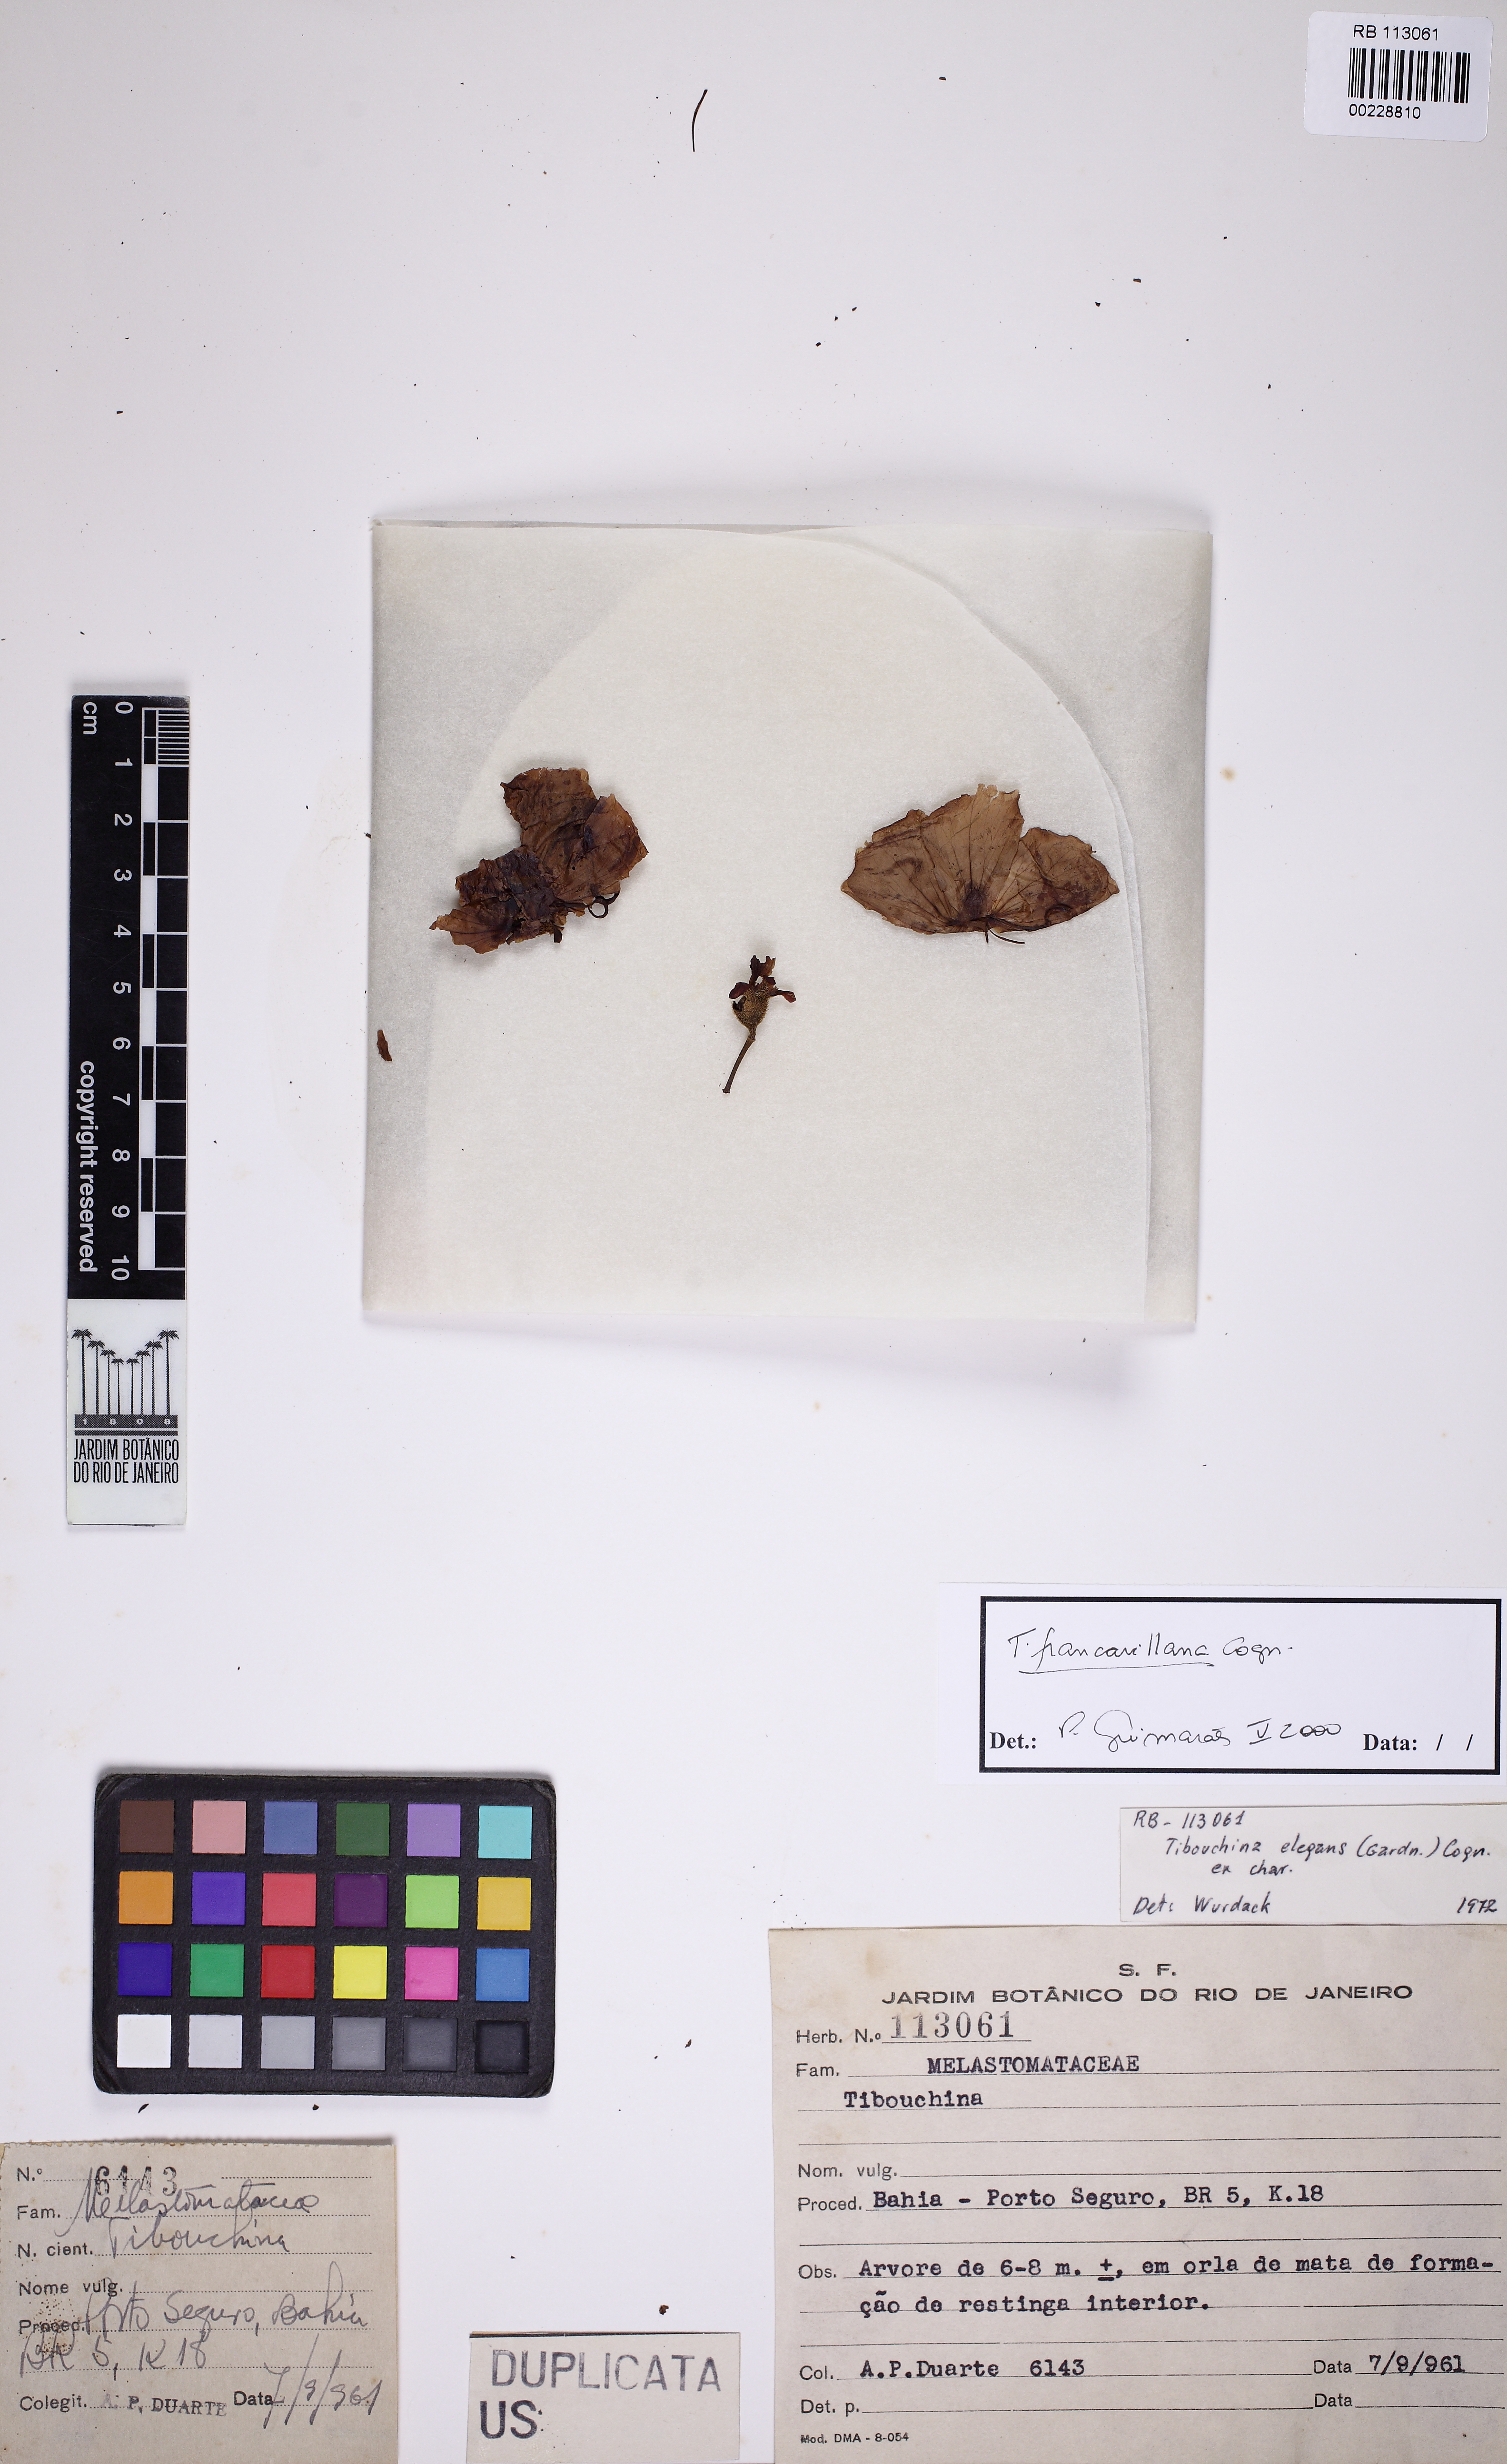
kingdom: Plantae
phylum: Tracheophyta
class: Magnoliopsida
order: Myrtales
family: Melastomataceae
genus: Pleroma
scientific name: Pleroma elegans
